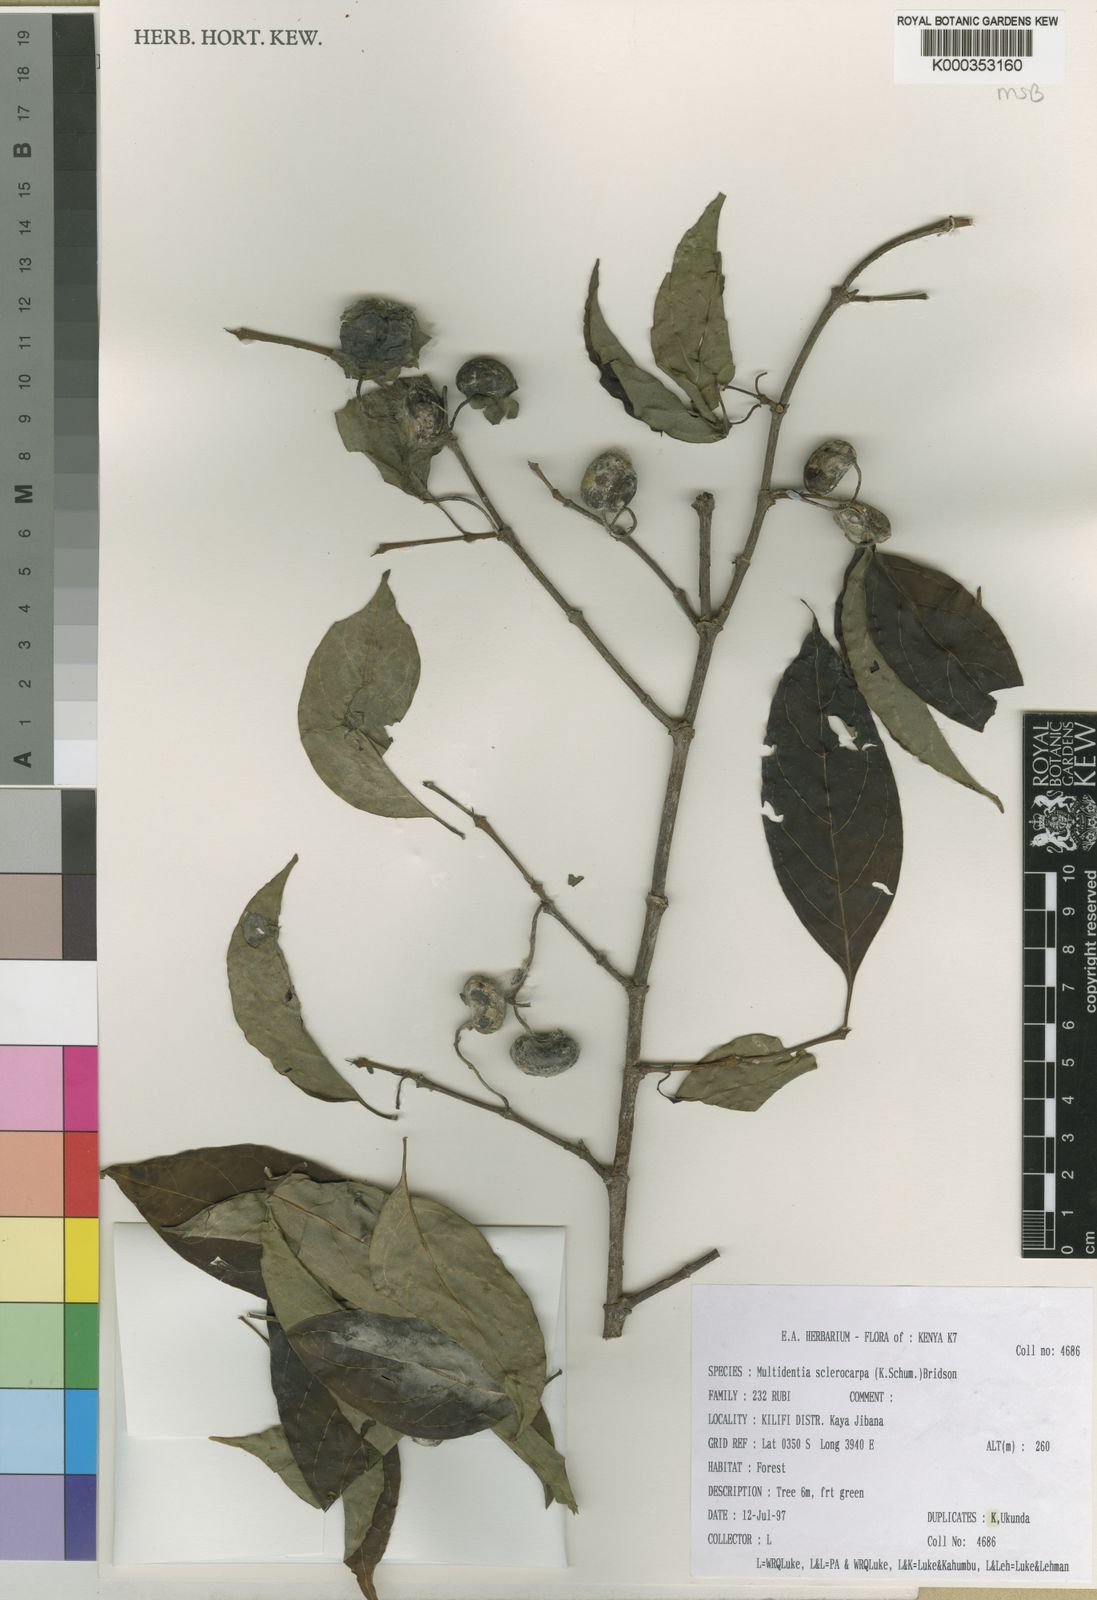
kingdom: Plantae
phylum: Tracheophyta
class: Magnoliopsida
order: Gentianales
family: Rubiaceae
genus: Multidentia
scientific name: Multidentia sclerocarpa
